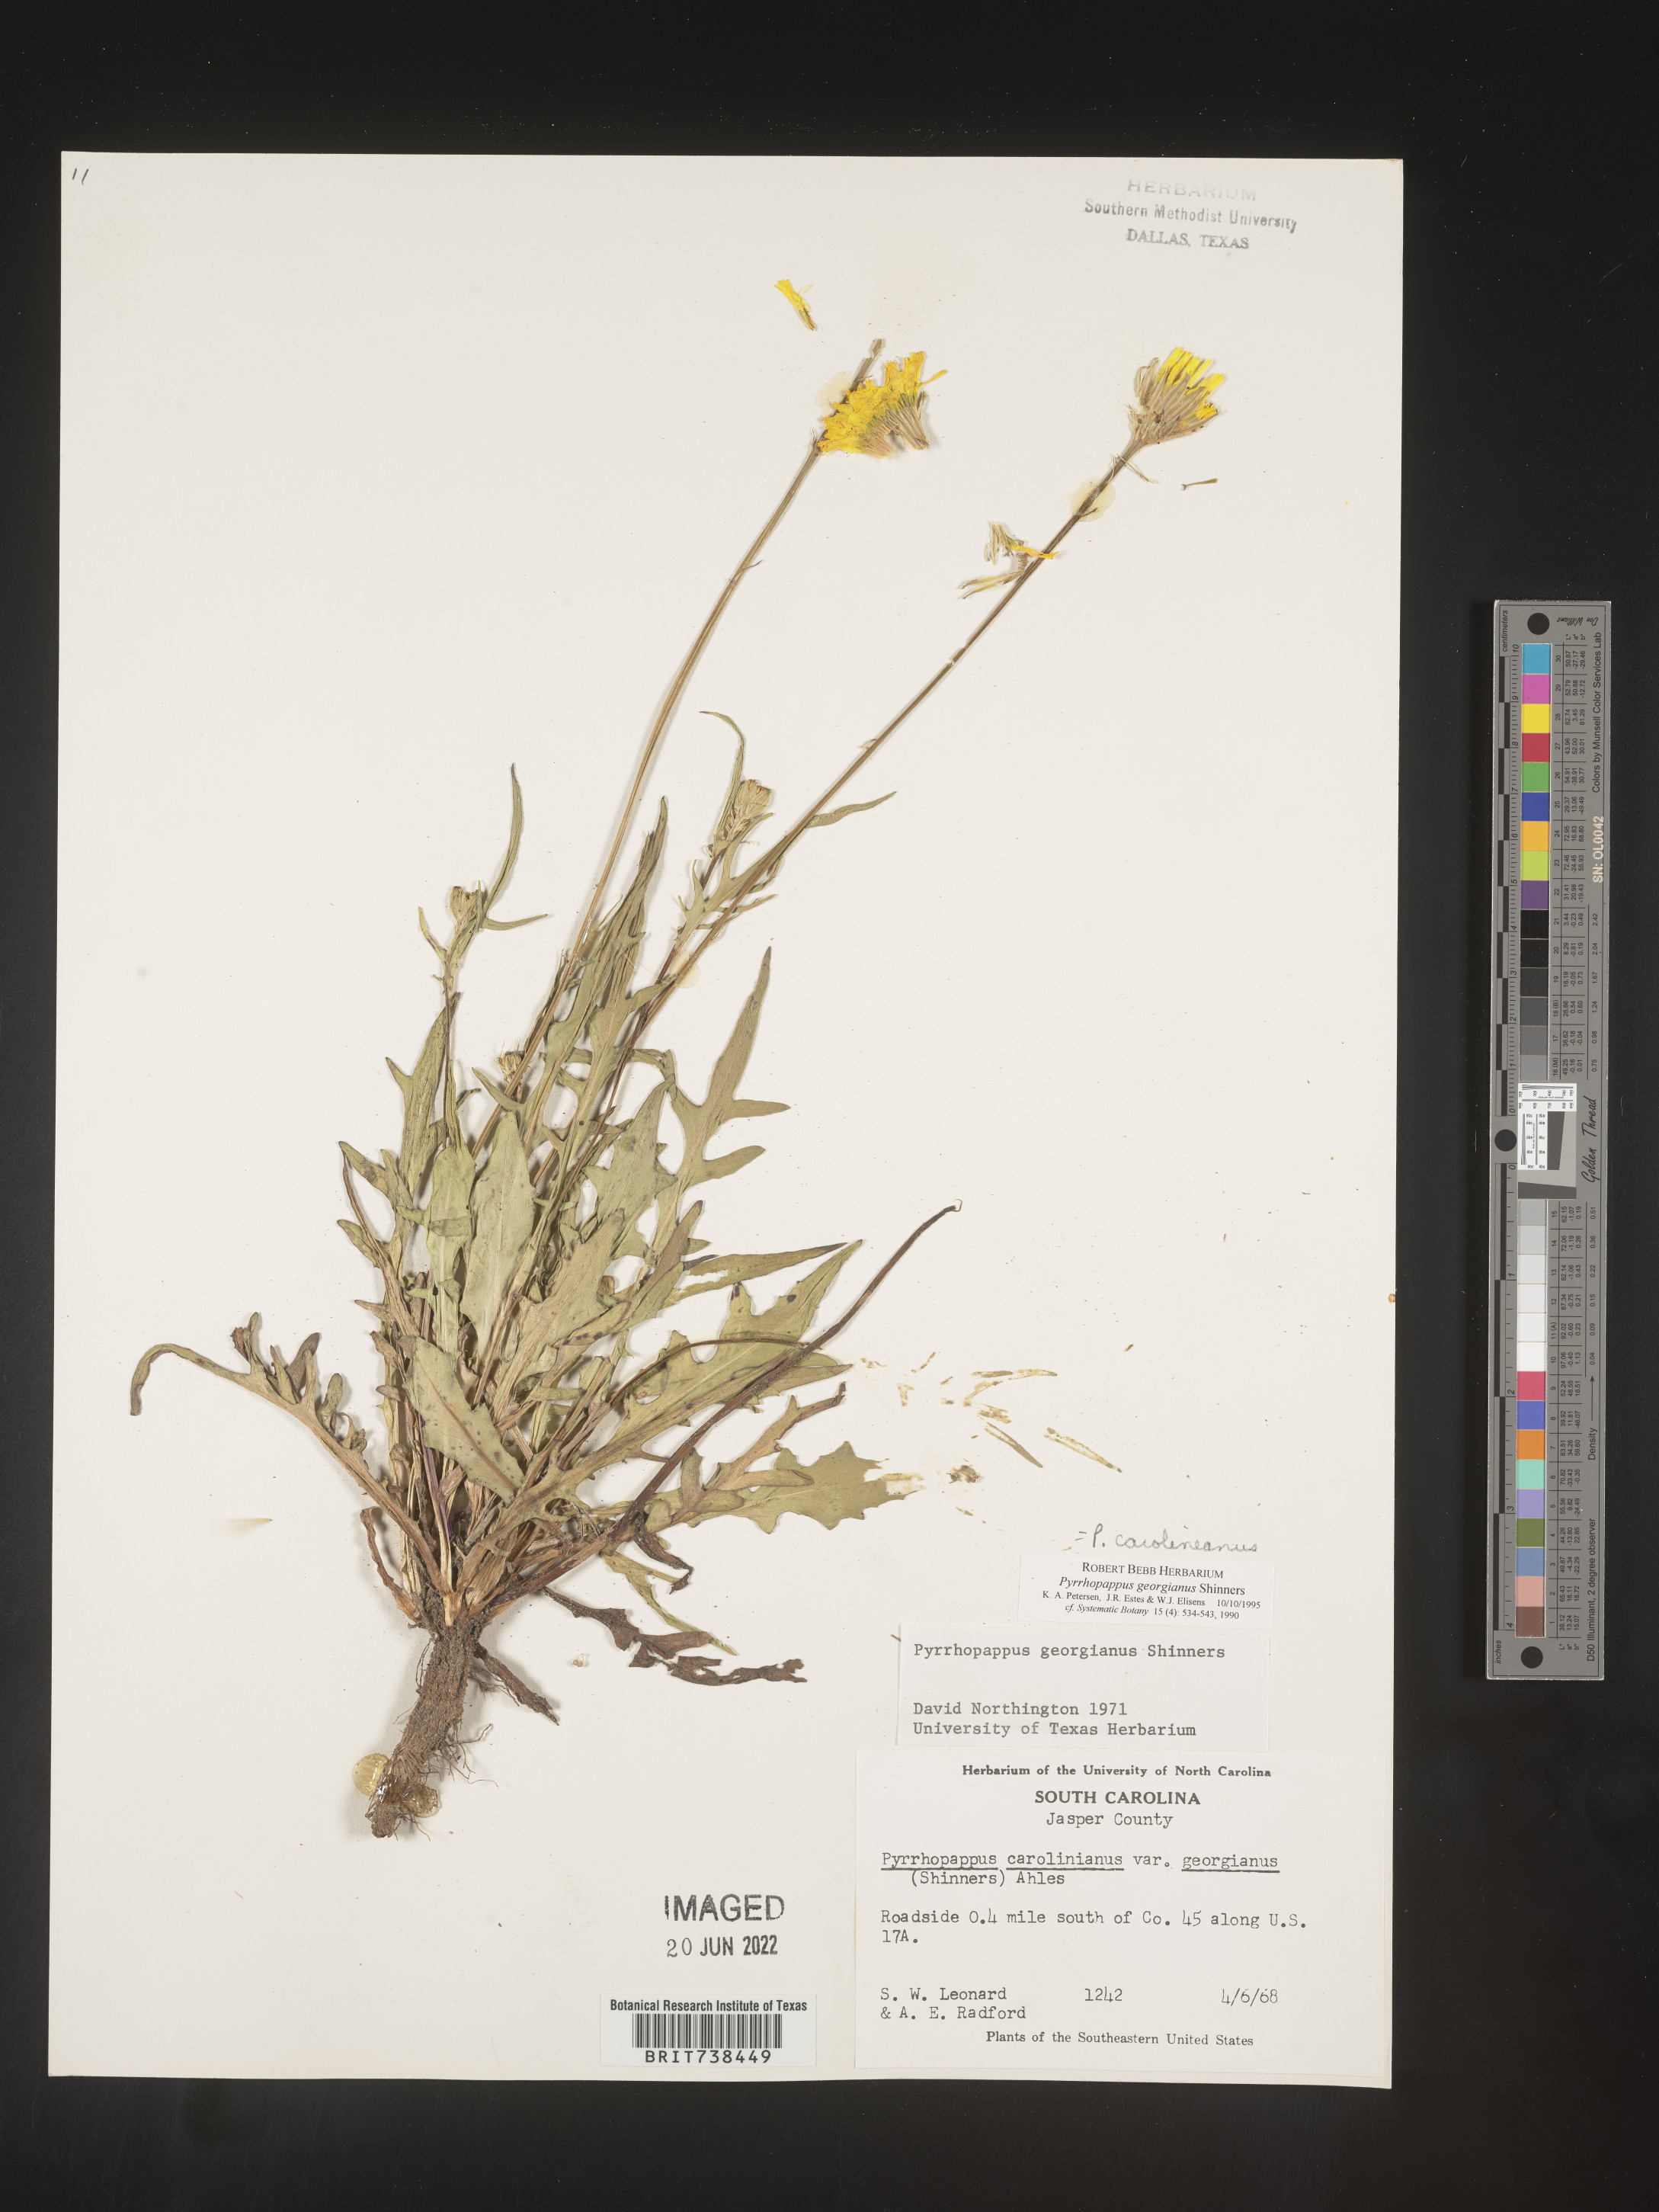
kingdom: Plantae
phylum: Tracheophyta
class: Magnoliopsida
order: Asterales
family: Asteraceae
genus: Pyrrhopappus
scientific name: Pyrrhopappus carolinianus
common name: Carolina desert-chicory
